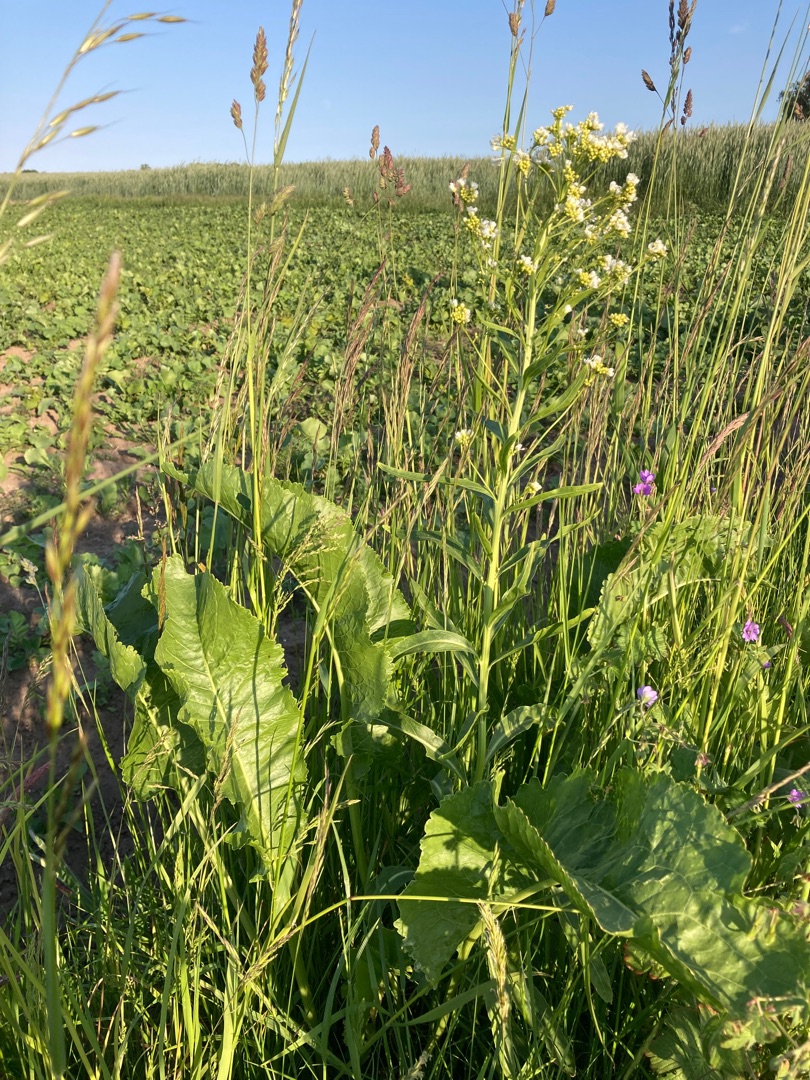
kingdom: Plantae
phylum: Tracheophyta
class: Magnoliopsida
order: Brassicales
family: Brassicaceae
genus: Armoracia
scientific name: Armoracia rusticana
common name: Peberrod
